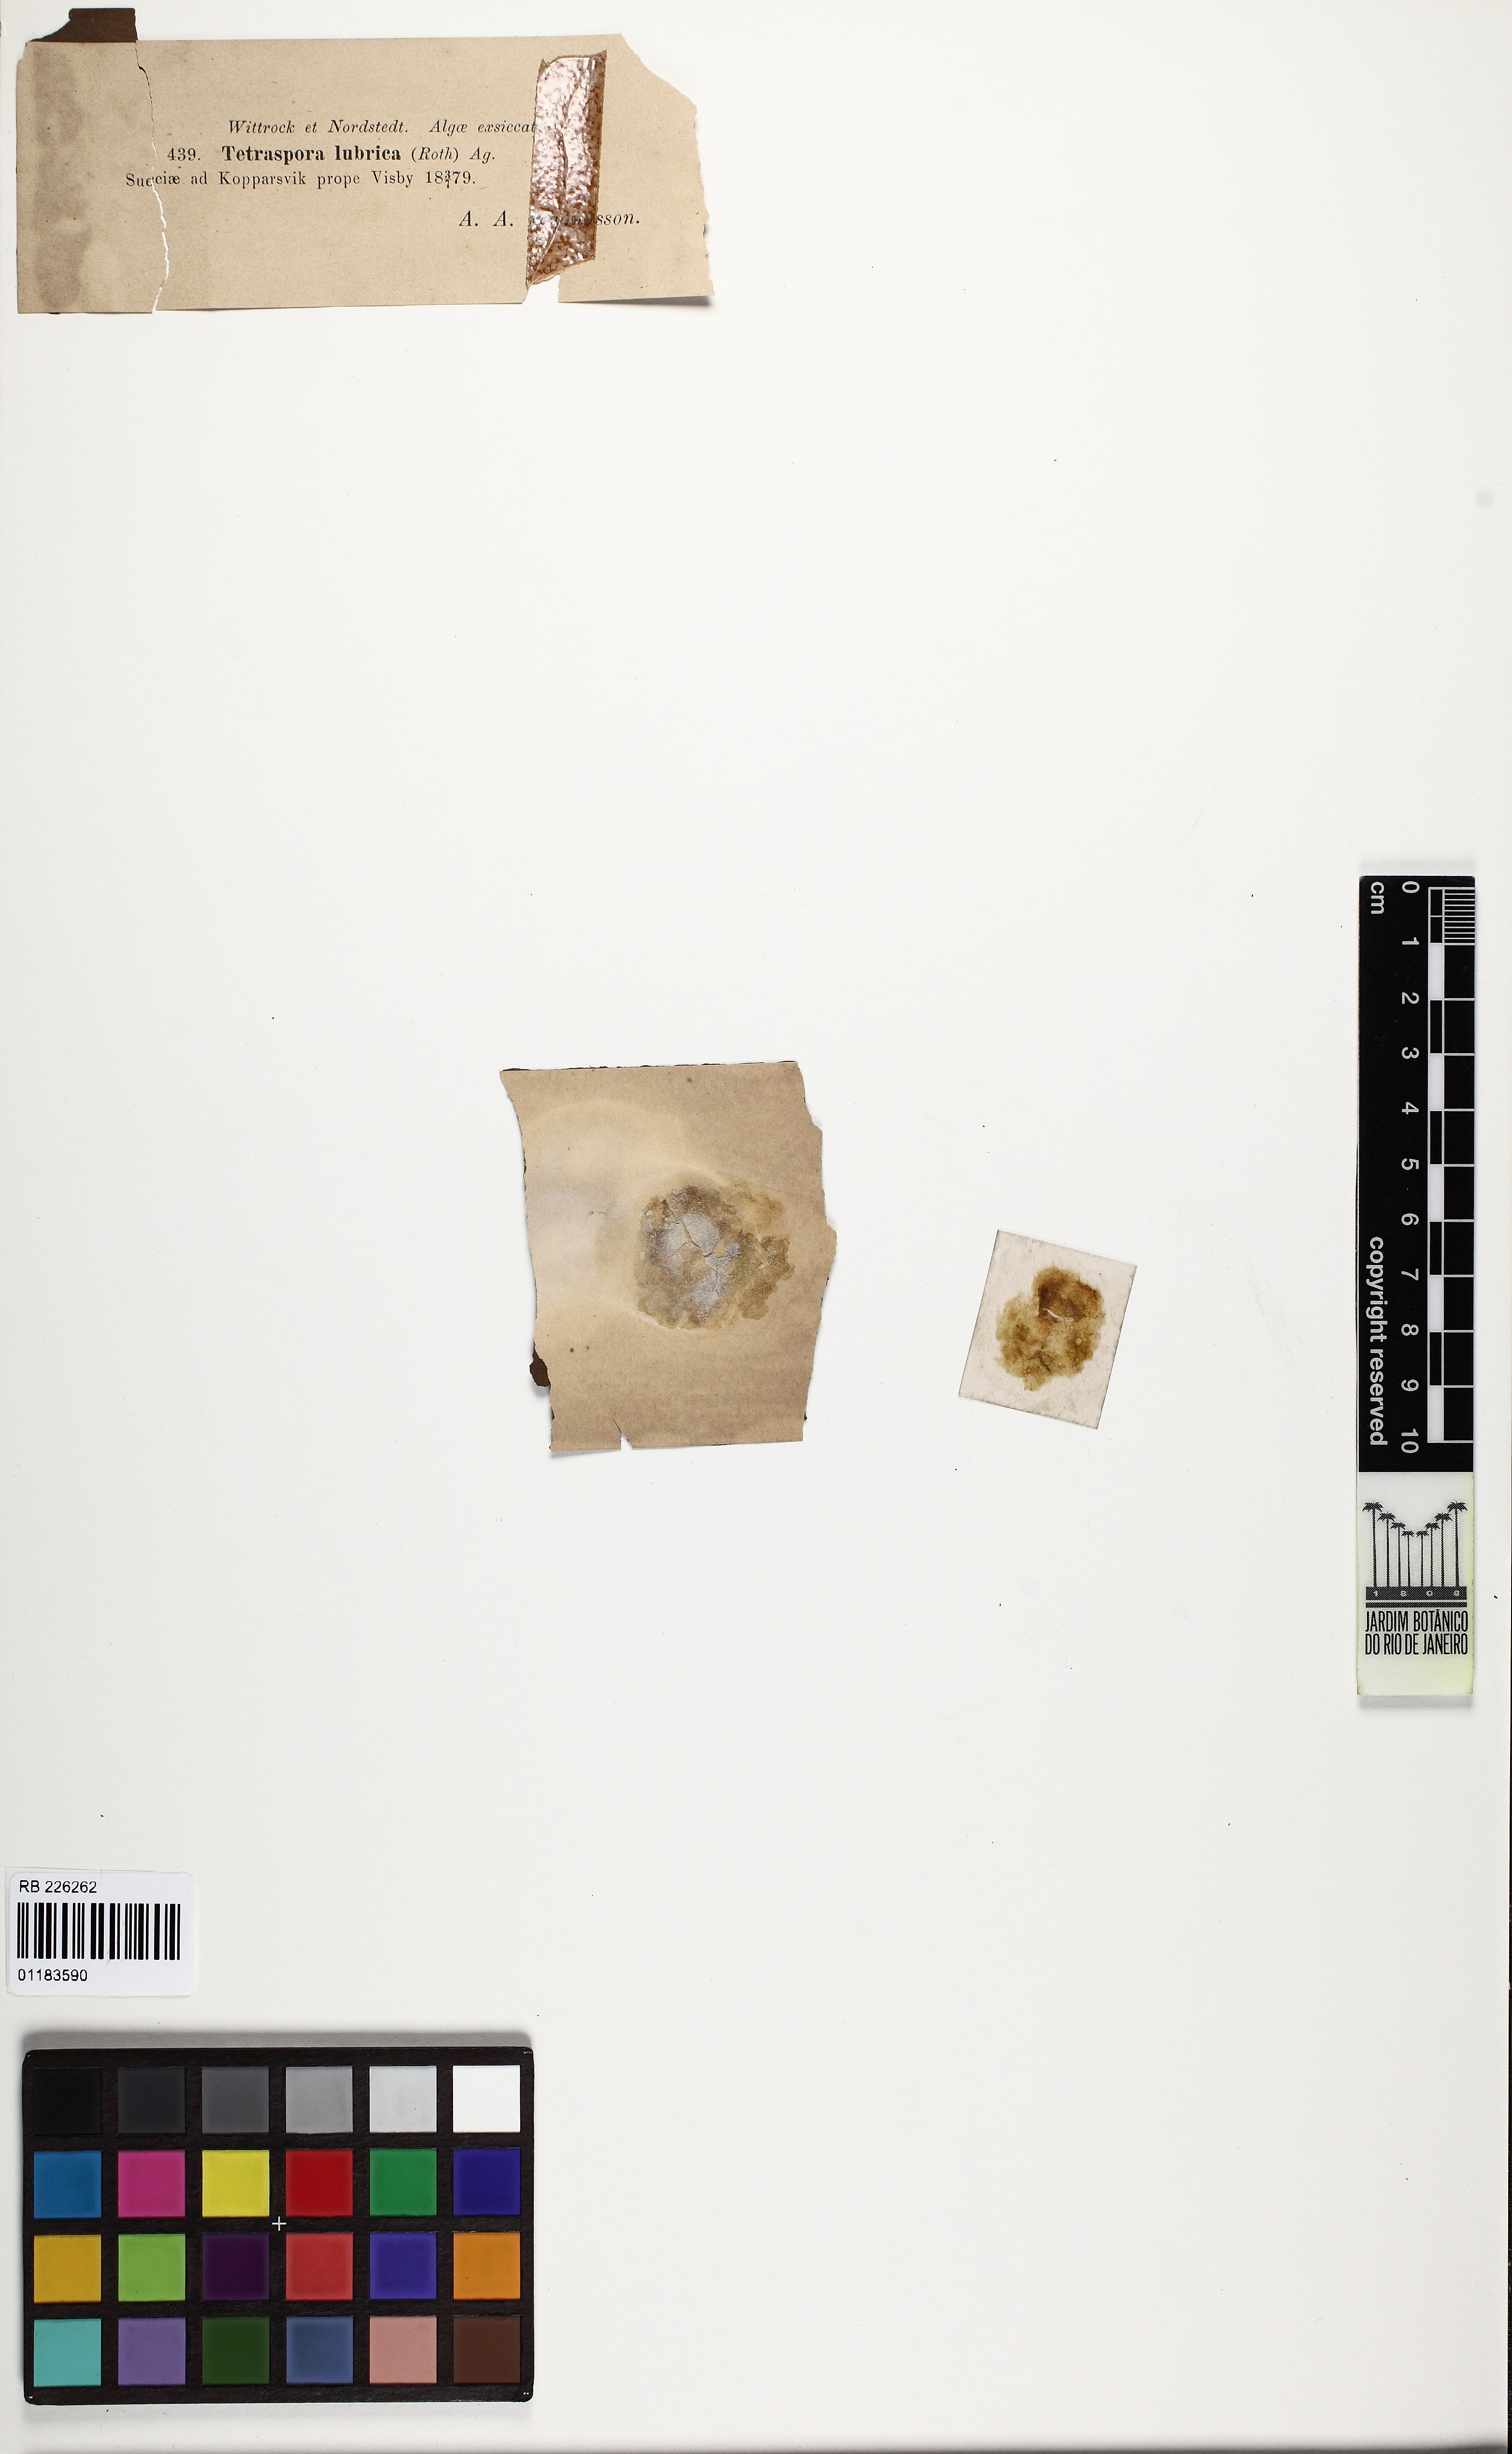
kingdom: Plantae
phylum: Chlorophyta
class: Chlorophyceae
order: Tetrasporales
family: Tetrasporaceae
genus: Tetraspora
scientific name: Tetraspora lubrica
